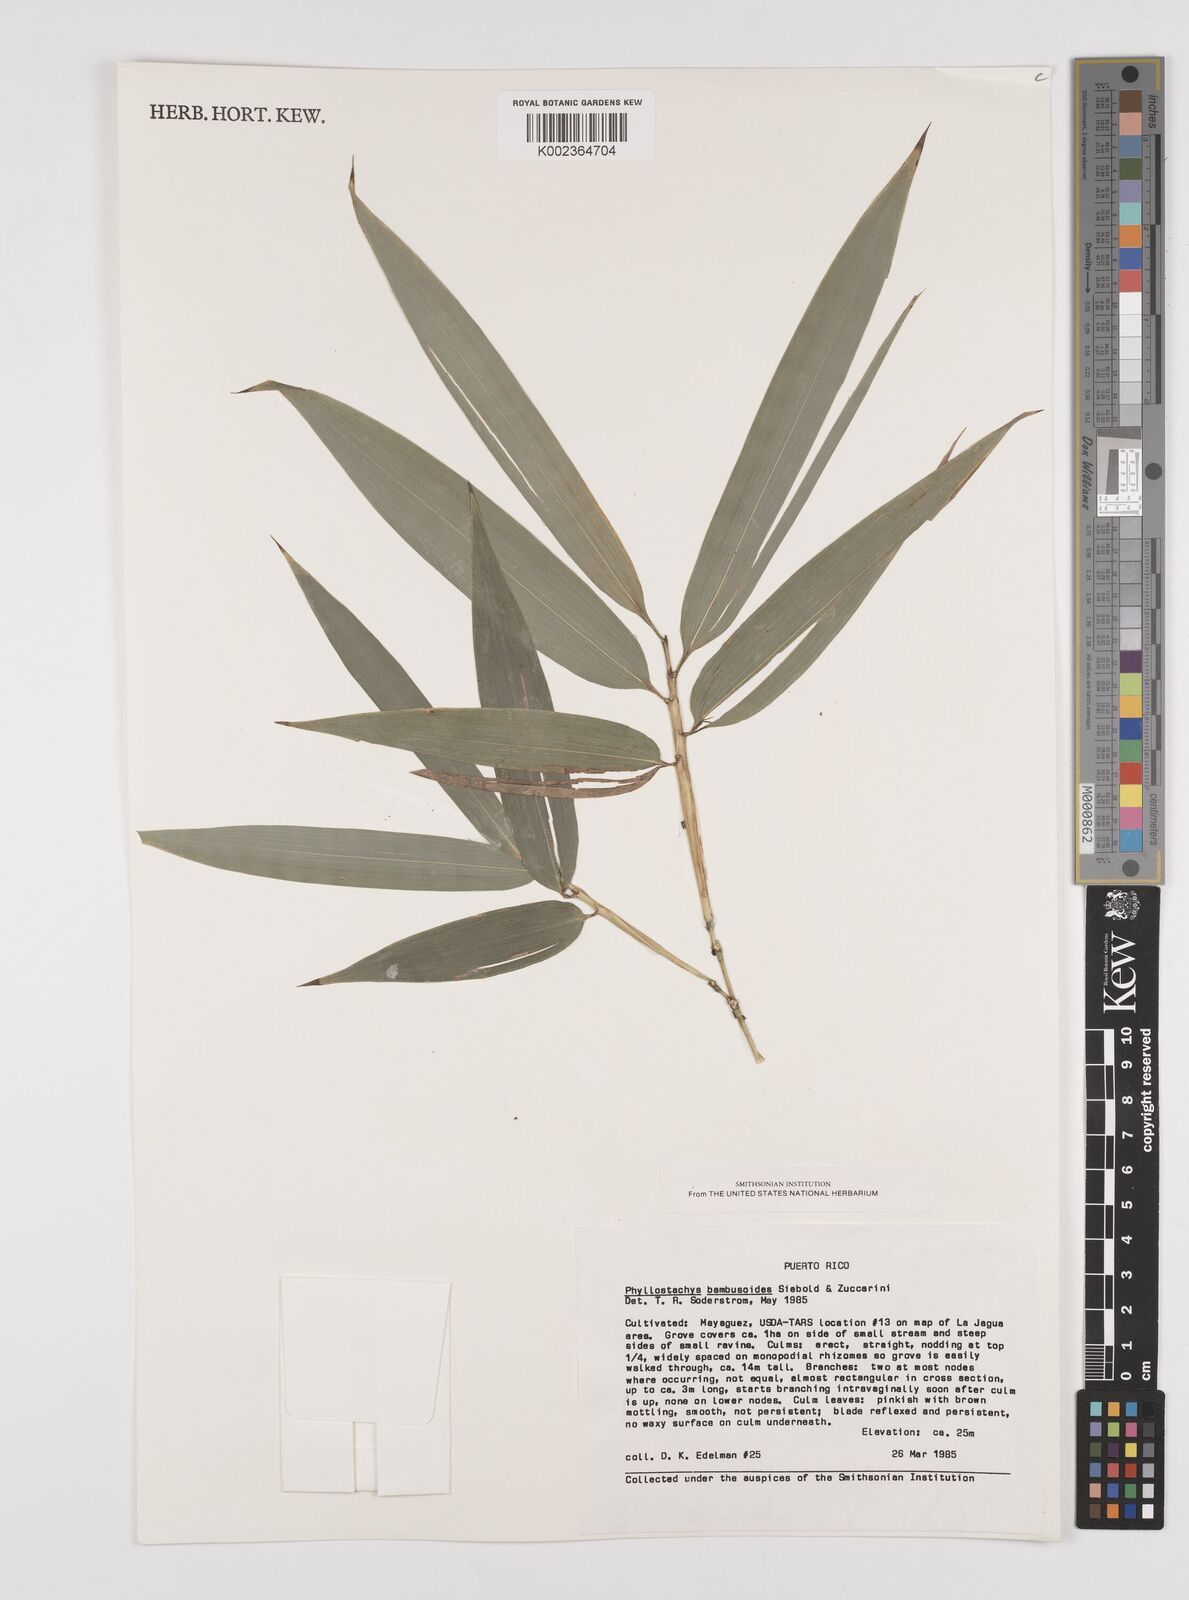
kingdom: Plantae
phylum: Tracheophyta
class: Liliopsida
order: Poales
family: Poaceae
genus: Phyllostachys
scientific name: Phyllostachys reticulata
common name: Bamboo
